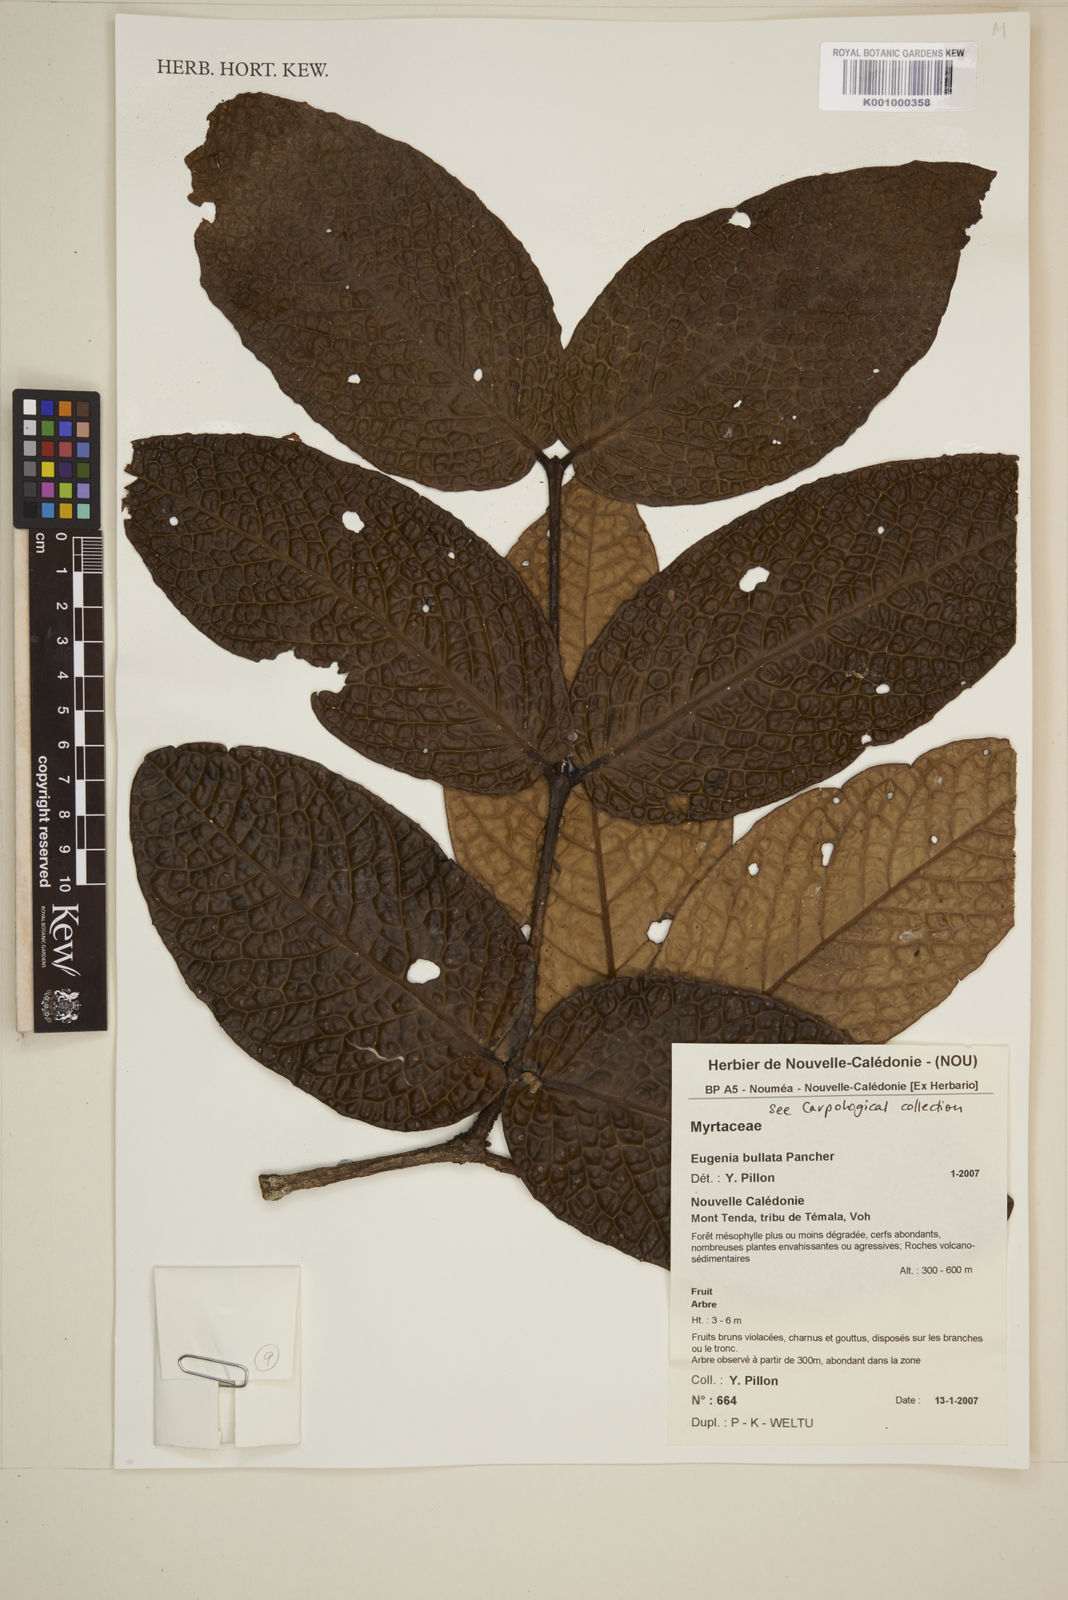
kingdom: Plantae
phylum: Tracheophyta
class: Magnoliopsida
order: Myrtales
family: Myrtaceae
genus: Eugenia
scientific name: Eugenia bullata
